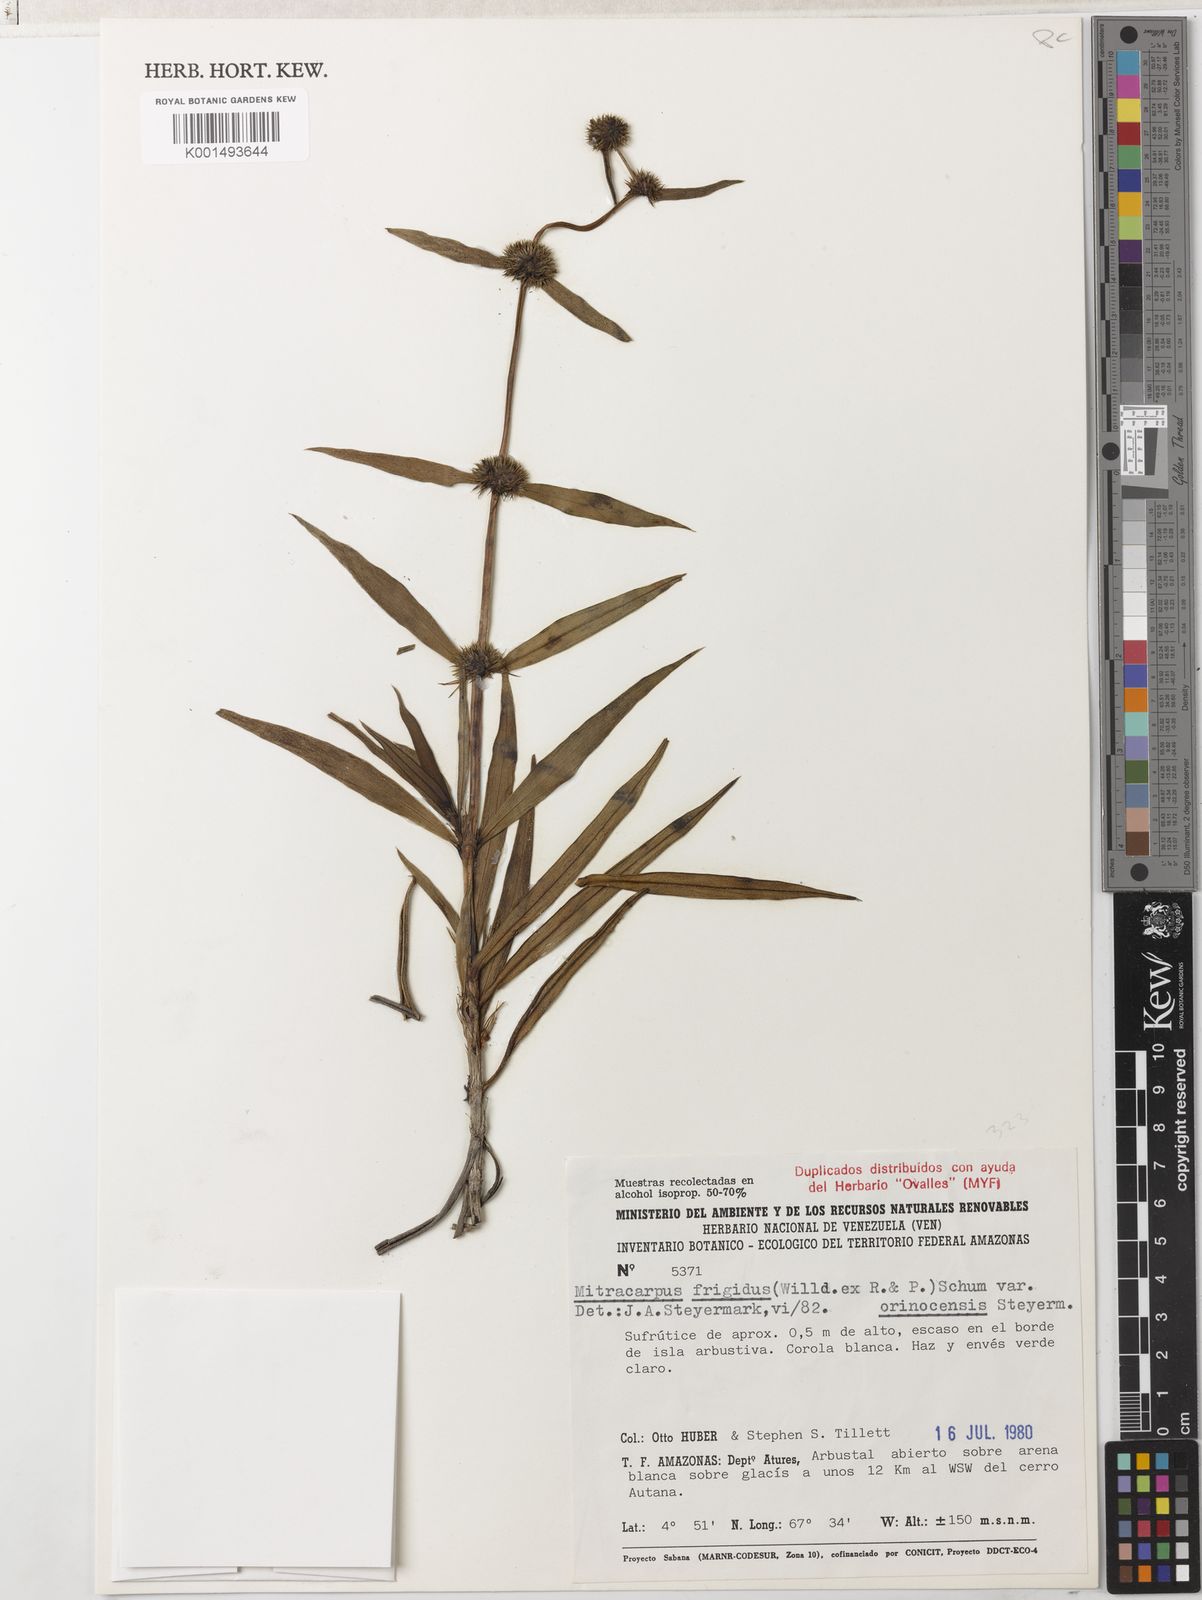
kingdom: Plantae
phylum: Tracheophyta
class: Magnoliopsida
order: Gentianales
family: Rubiaceae
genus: Mitracarpus
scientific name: Mitracarpus frigidus
